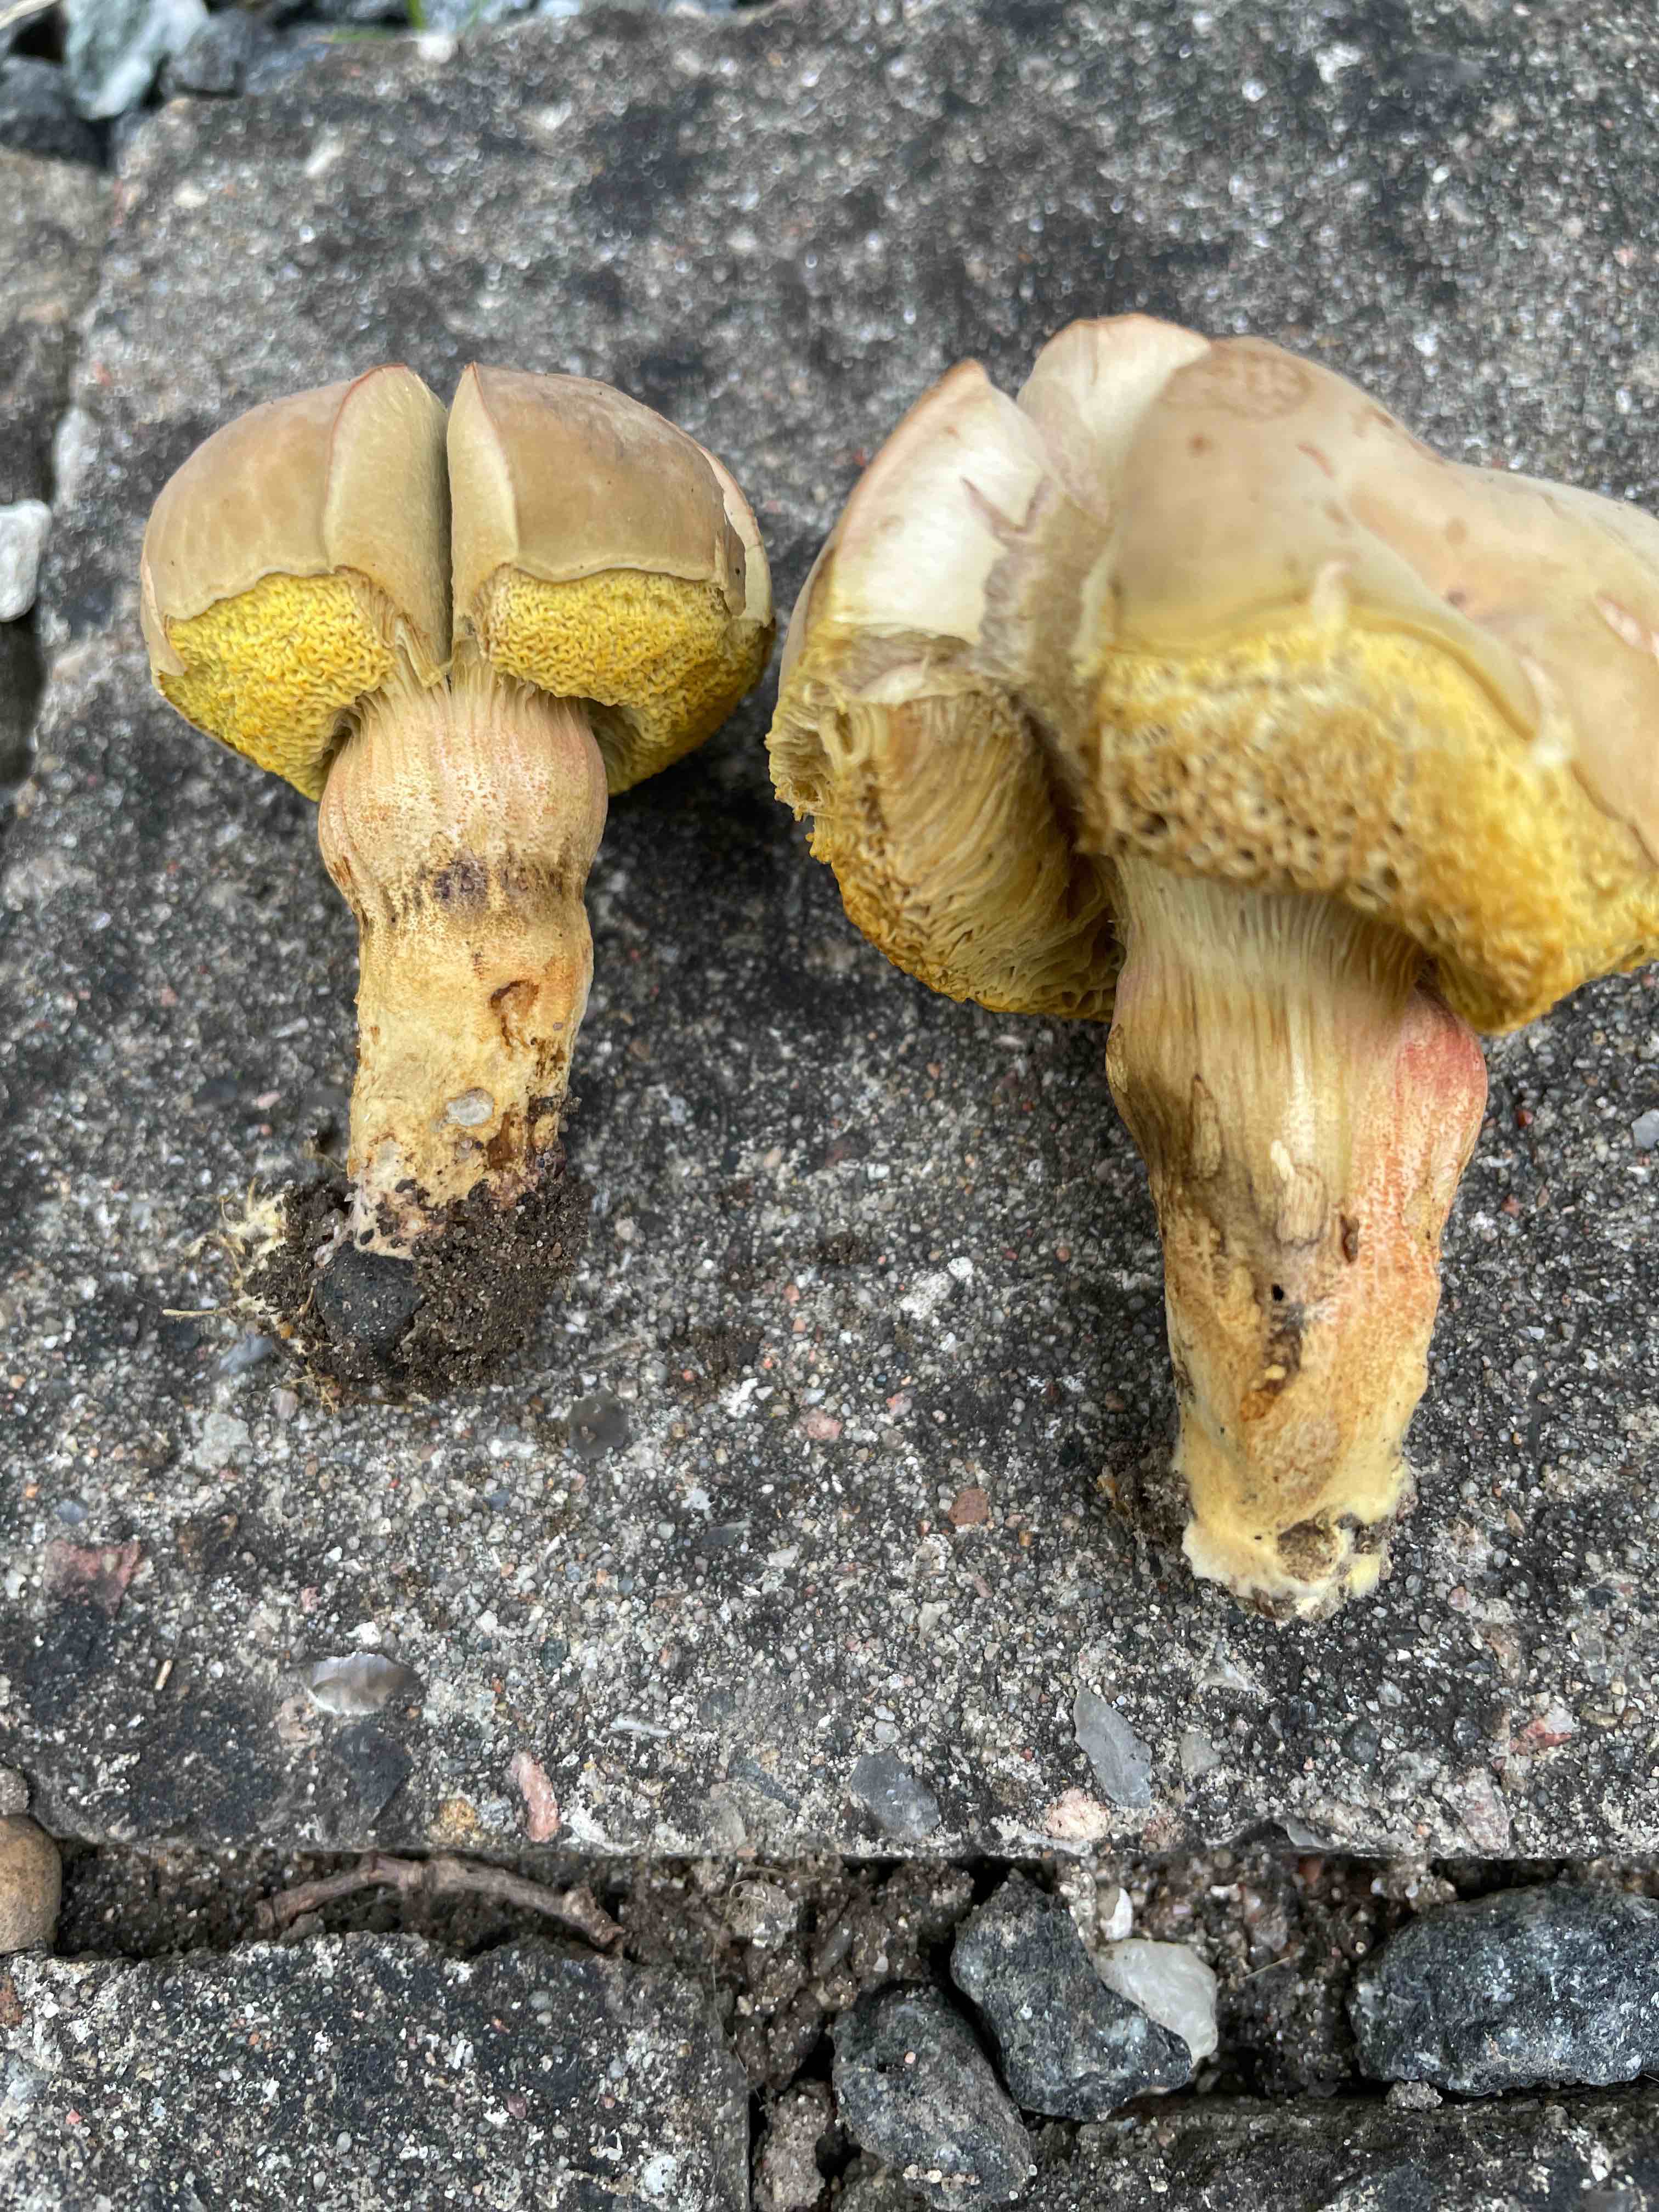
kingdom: Fungi
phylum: Basidiomycota
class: Agaricomycetes
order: Boletales
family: Boletaceae
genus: Hortiboletus
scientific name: Hortiboletus bubalinus
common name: aurora-rørhat
